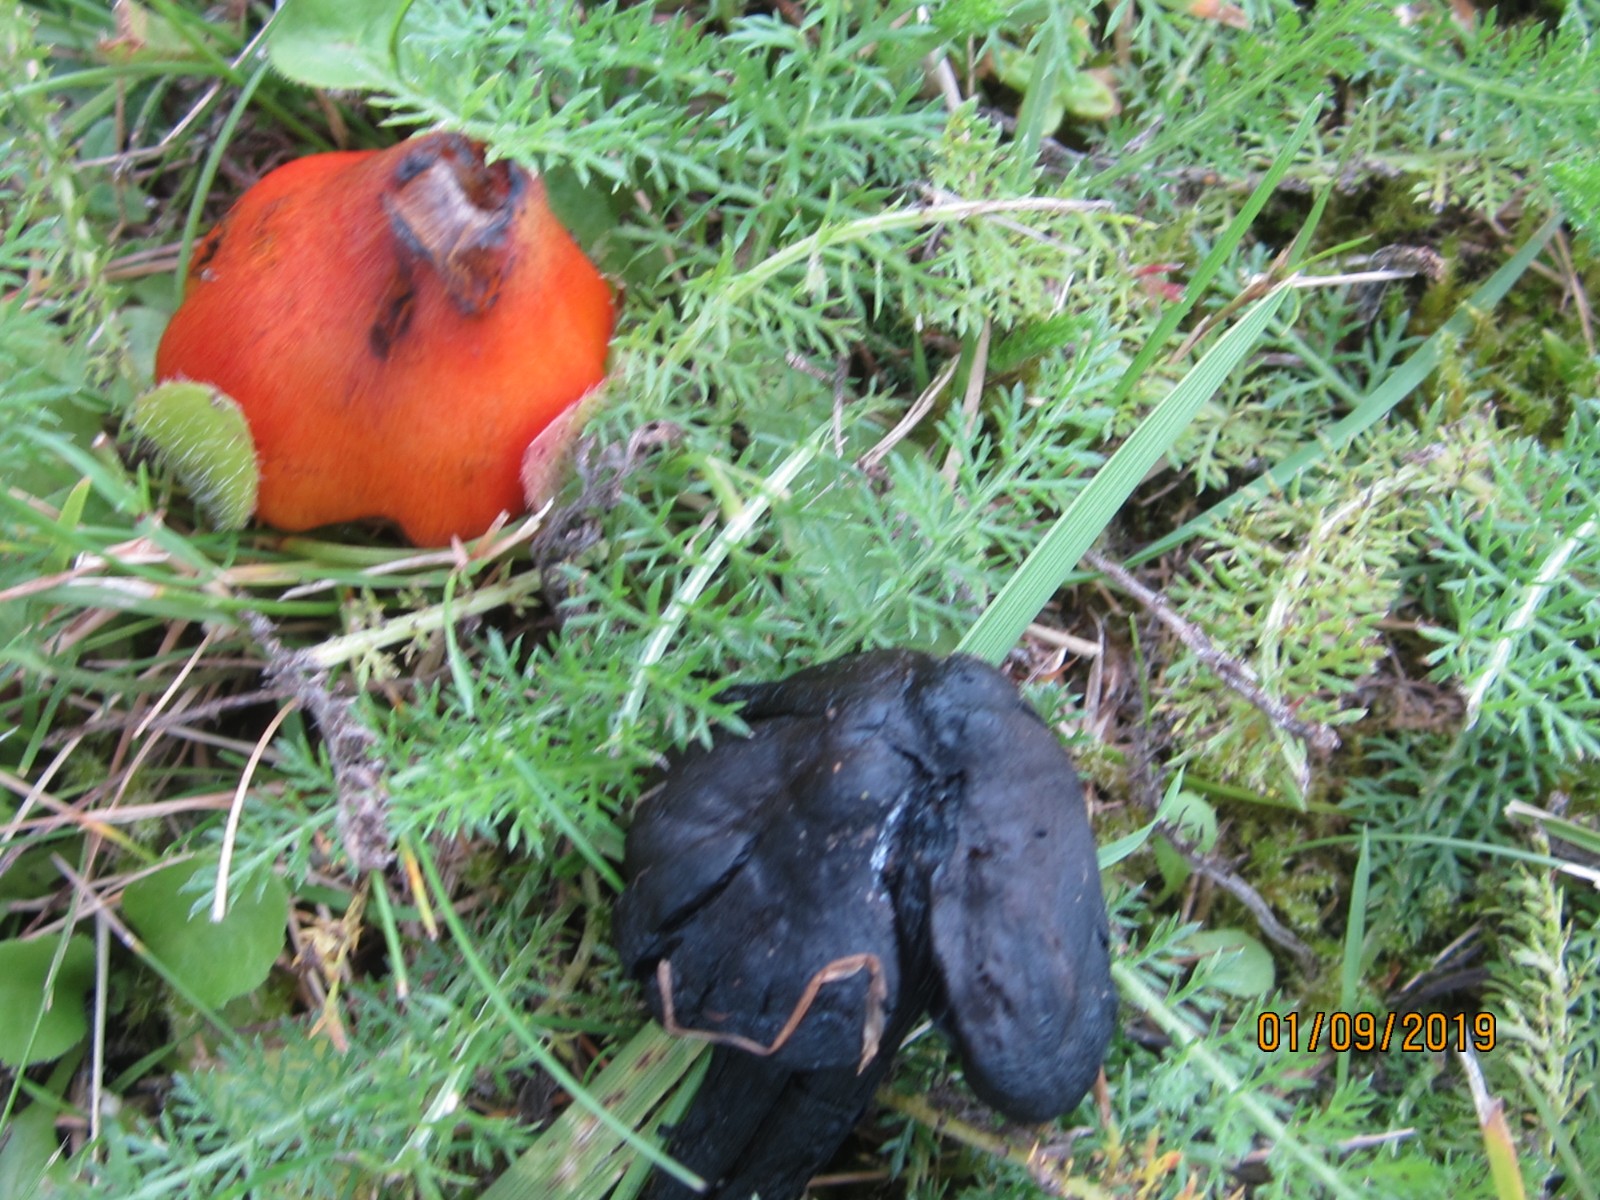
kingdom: Fungi
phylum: Basidiomycota
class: Agaricomycetes
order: Agaricales
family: Hygrophoraceae
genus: Hygrocybe
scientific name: Hygrocybe conica
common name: kegle-vokshat
